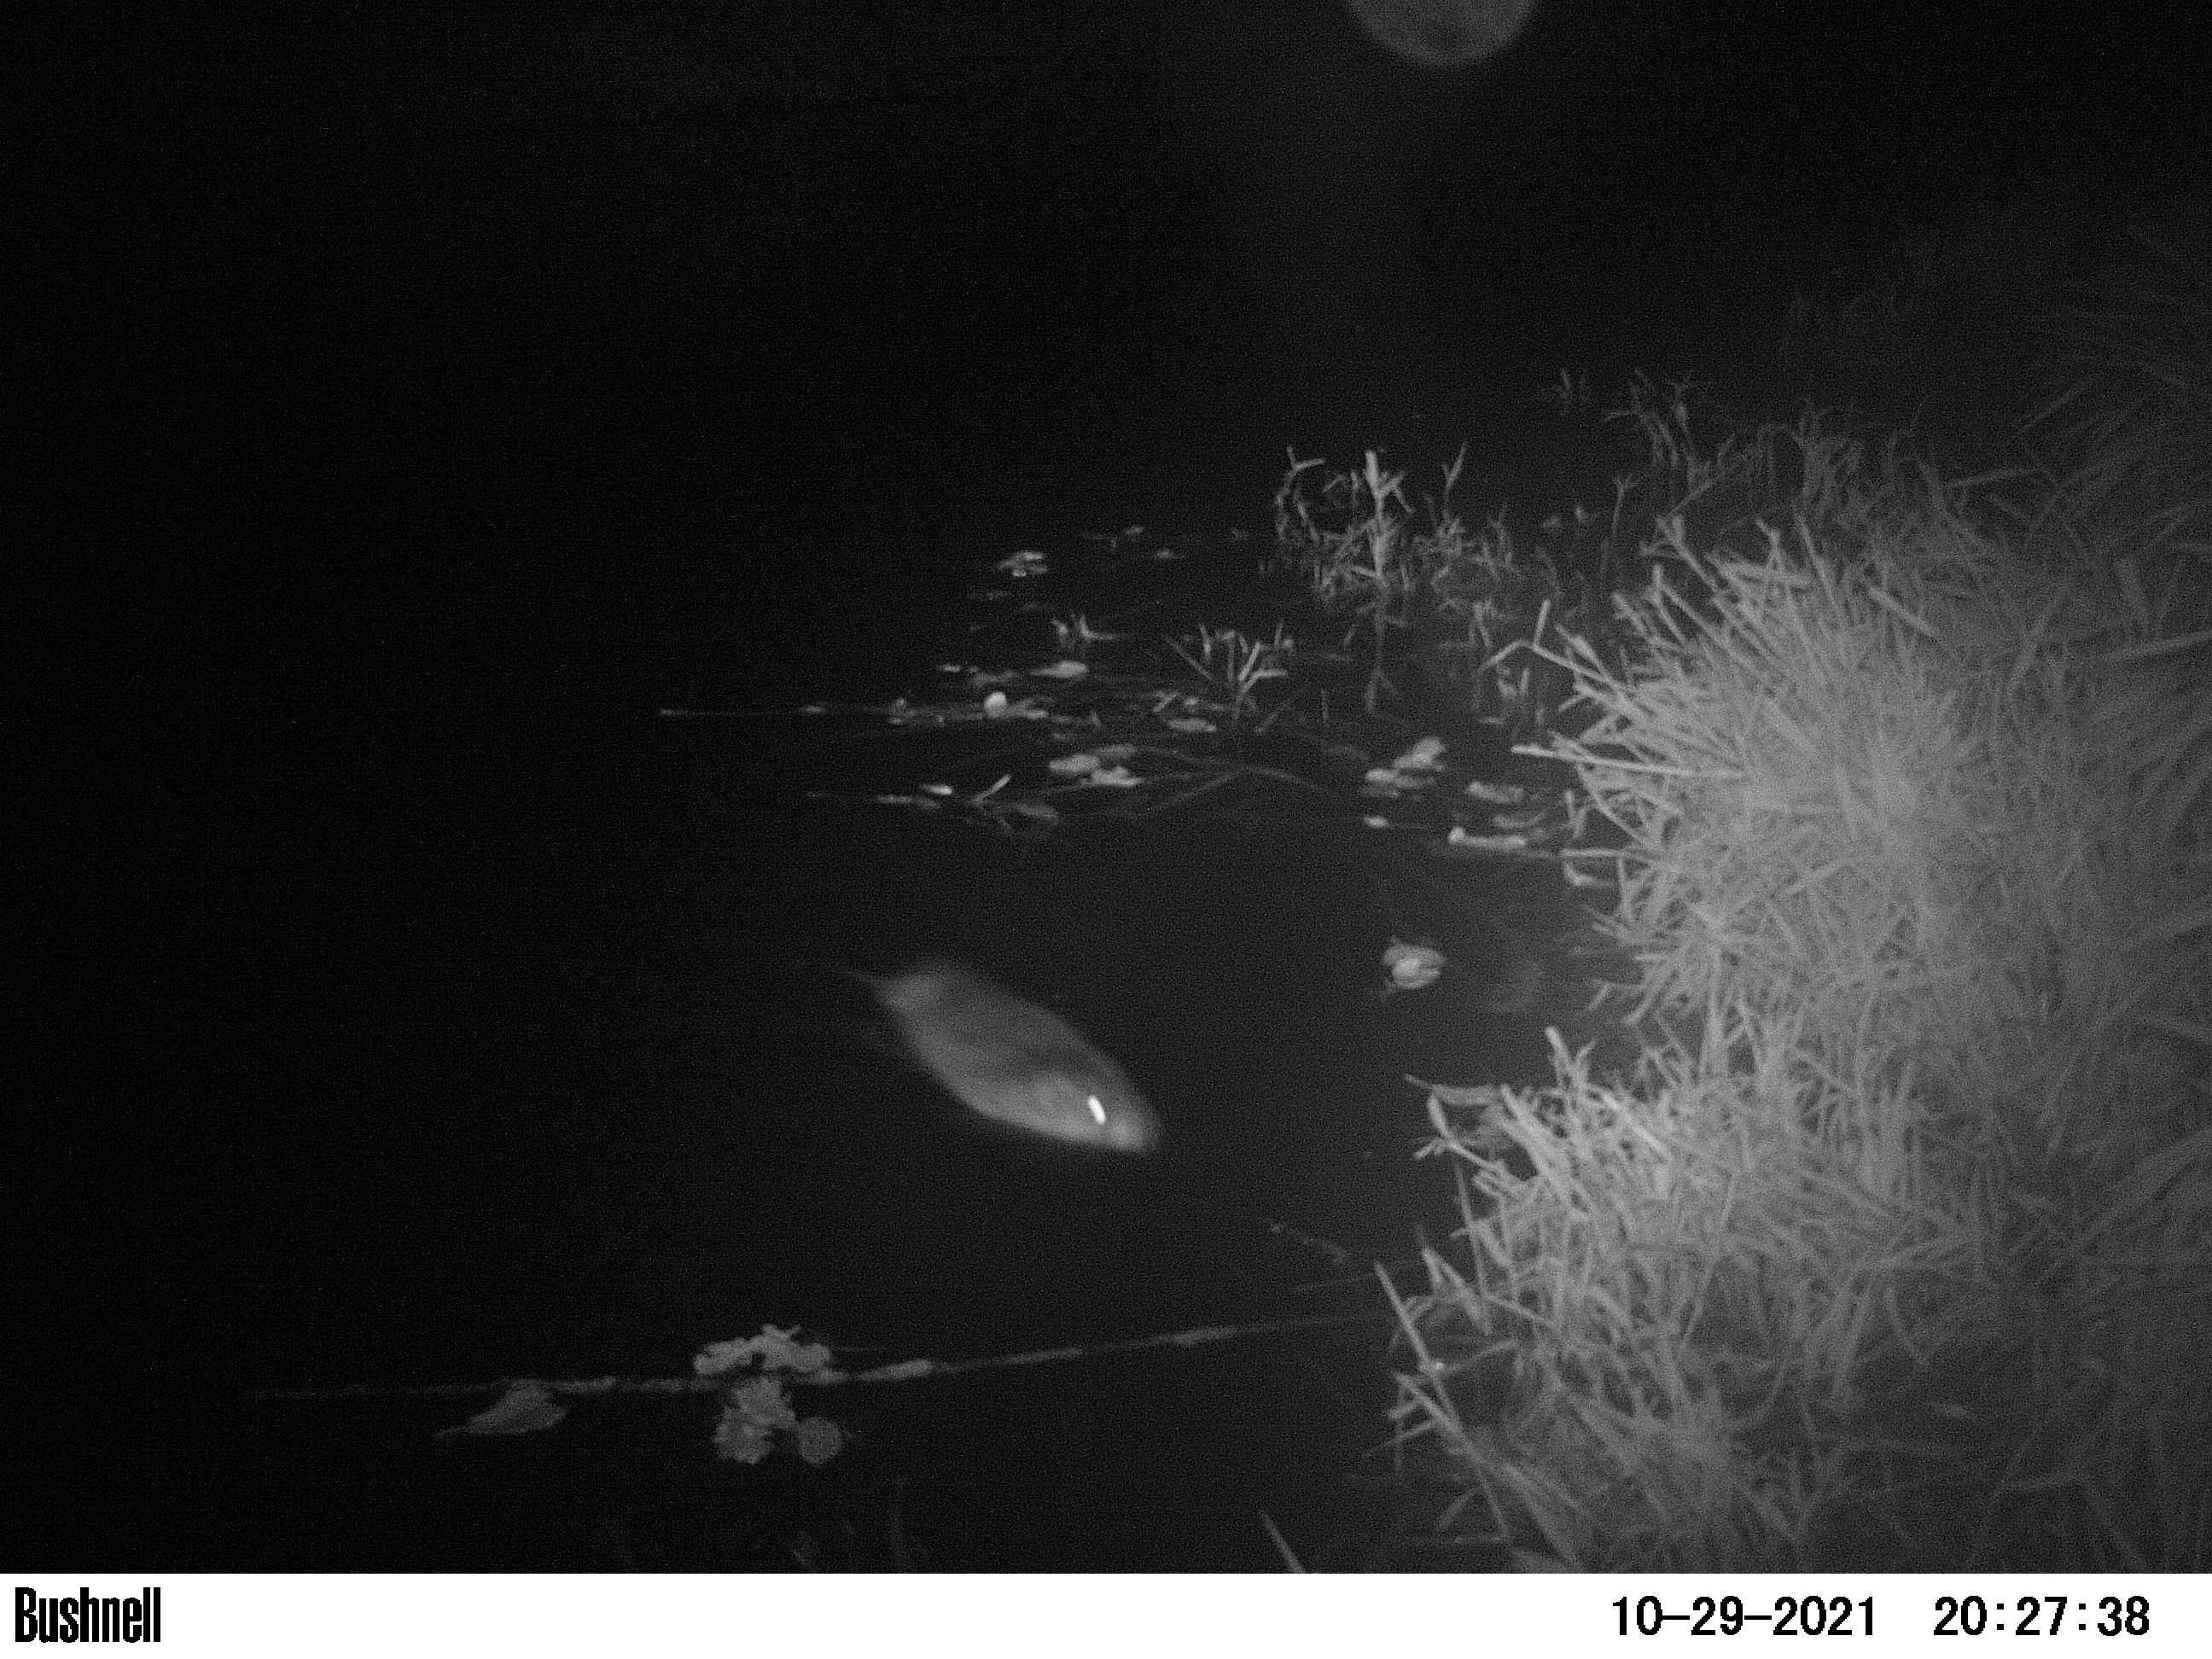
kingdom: Animalia
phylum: Chordata
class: Mammalia
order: Rodentia
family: Cricetidae
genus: Ondatra
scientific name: Ondatra zibethicus
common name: Muskrat
